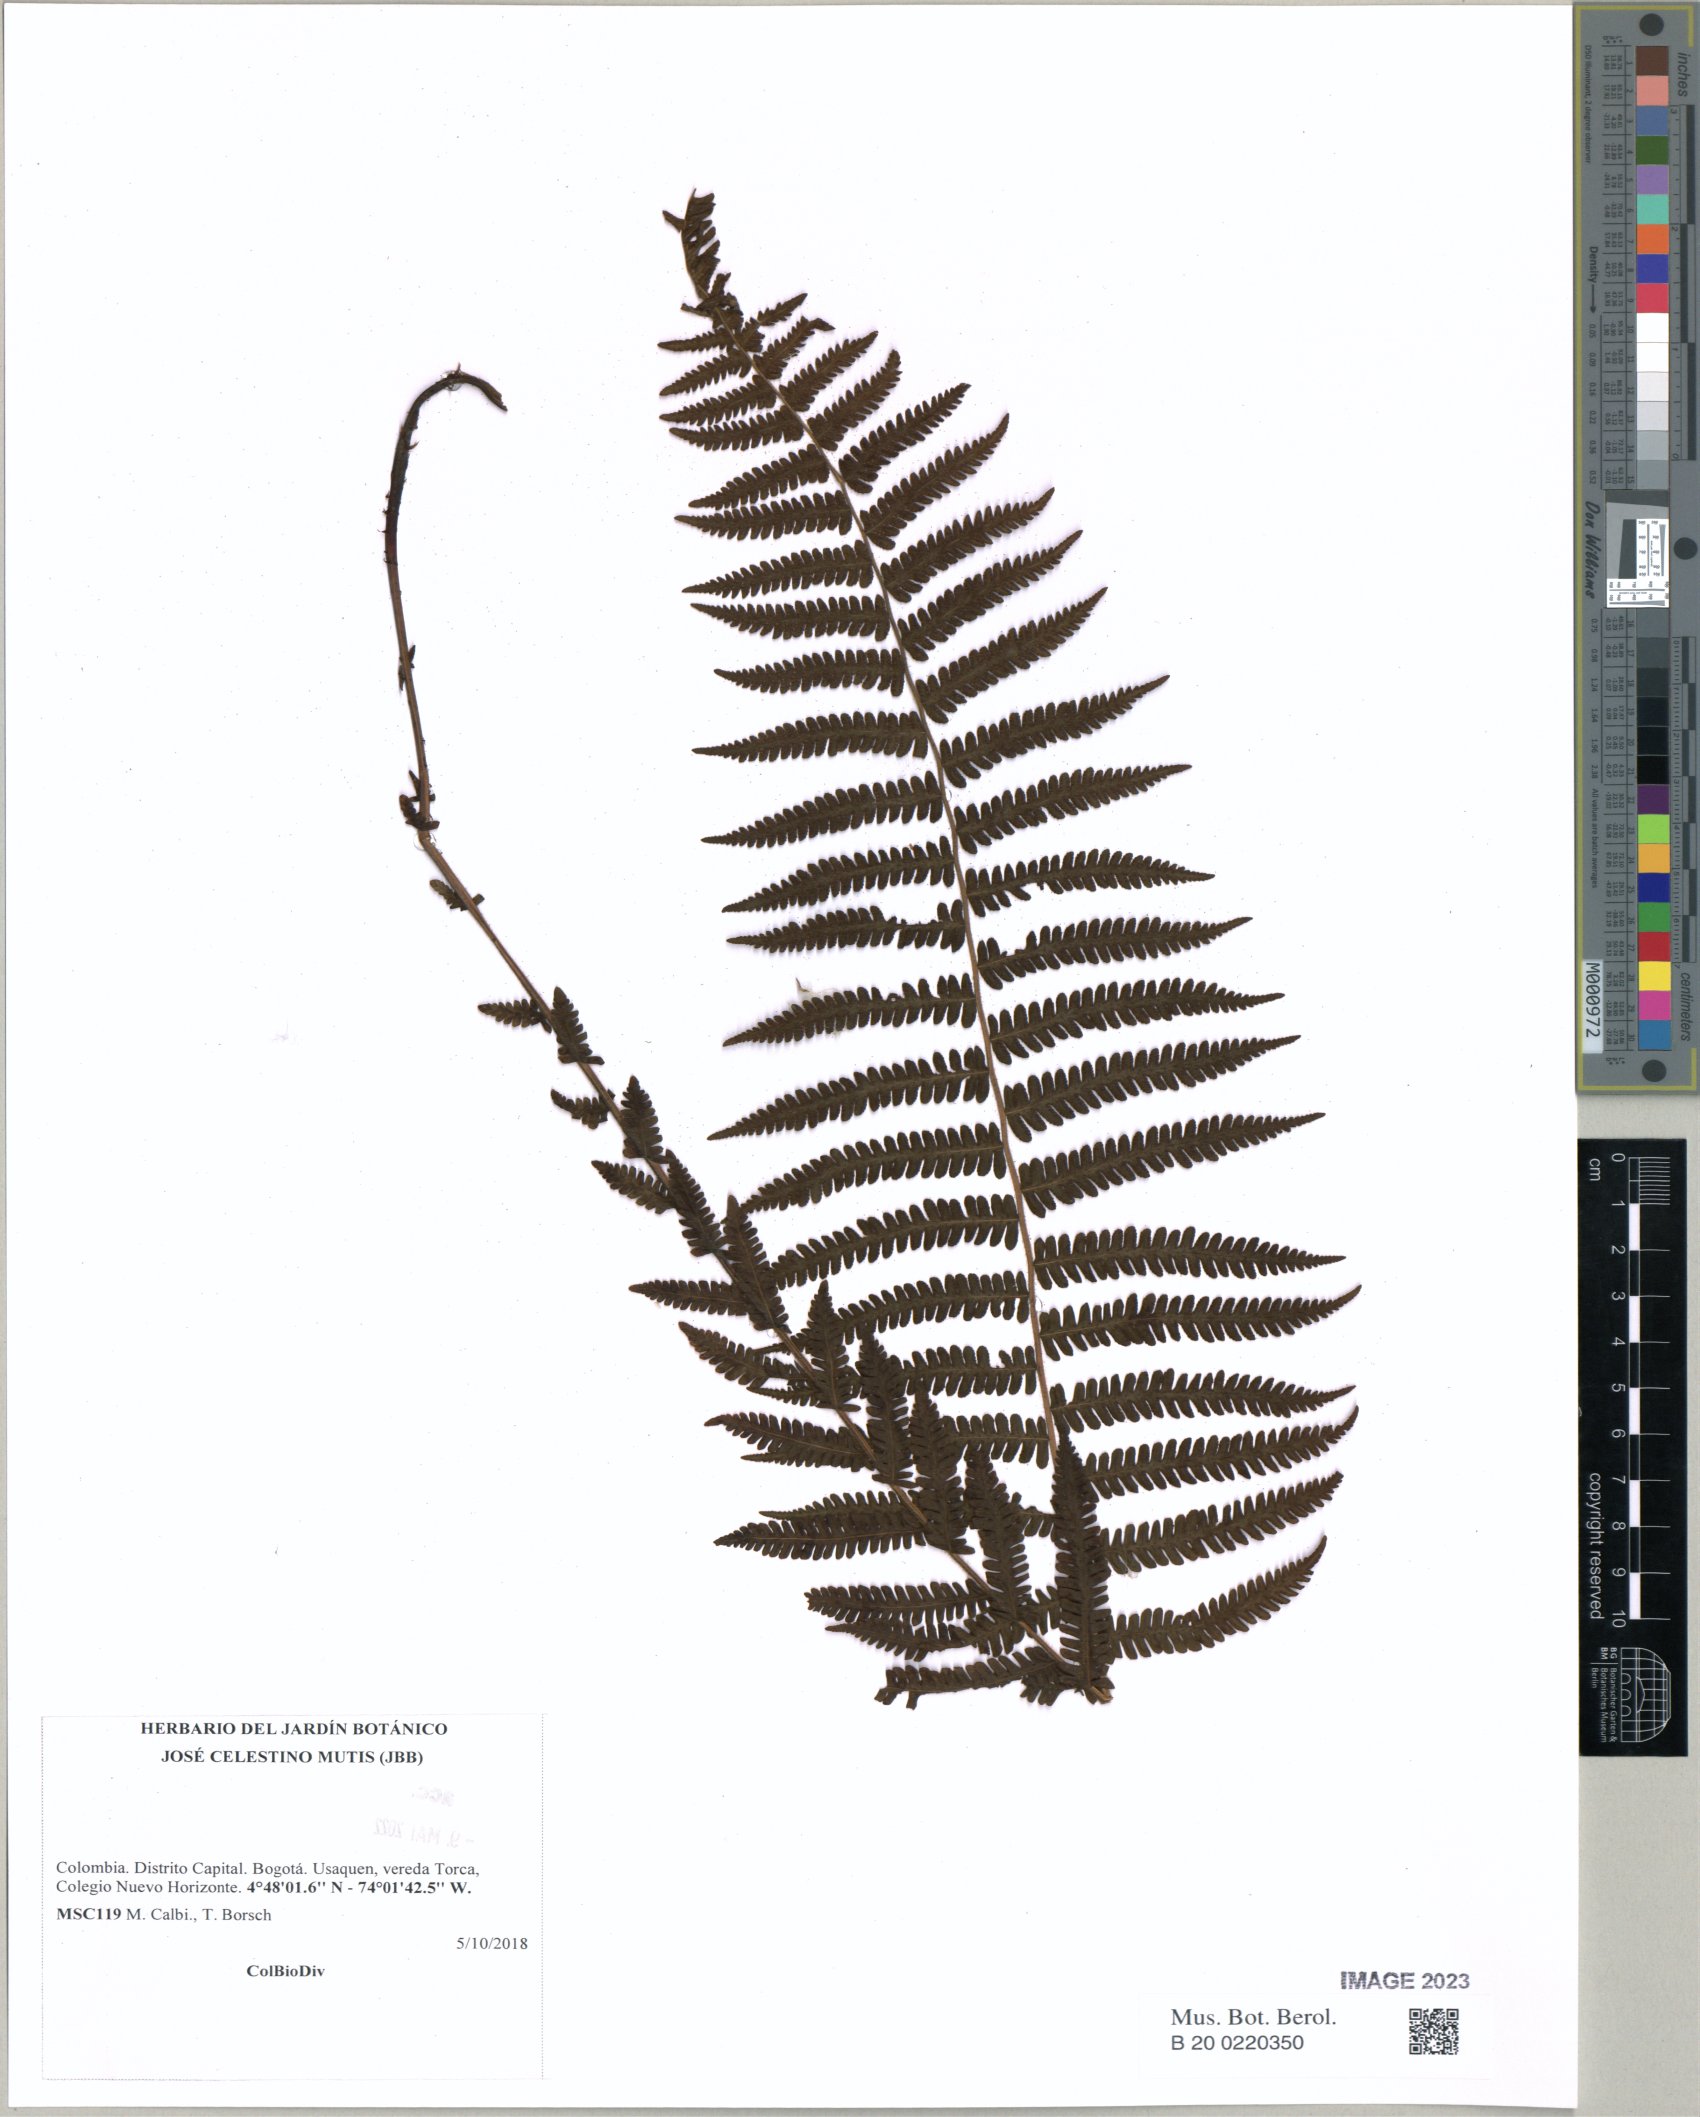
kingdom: Plantae
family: Pteridophyta
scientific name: Pteridophyta
